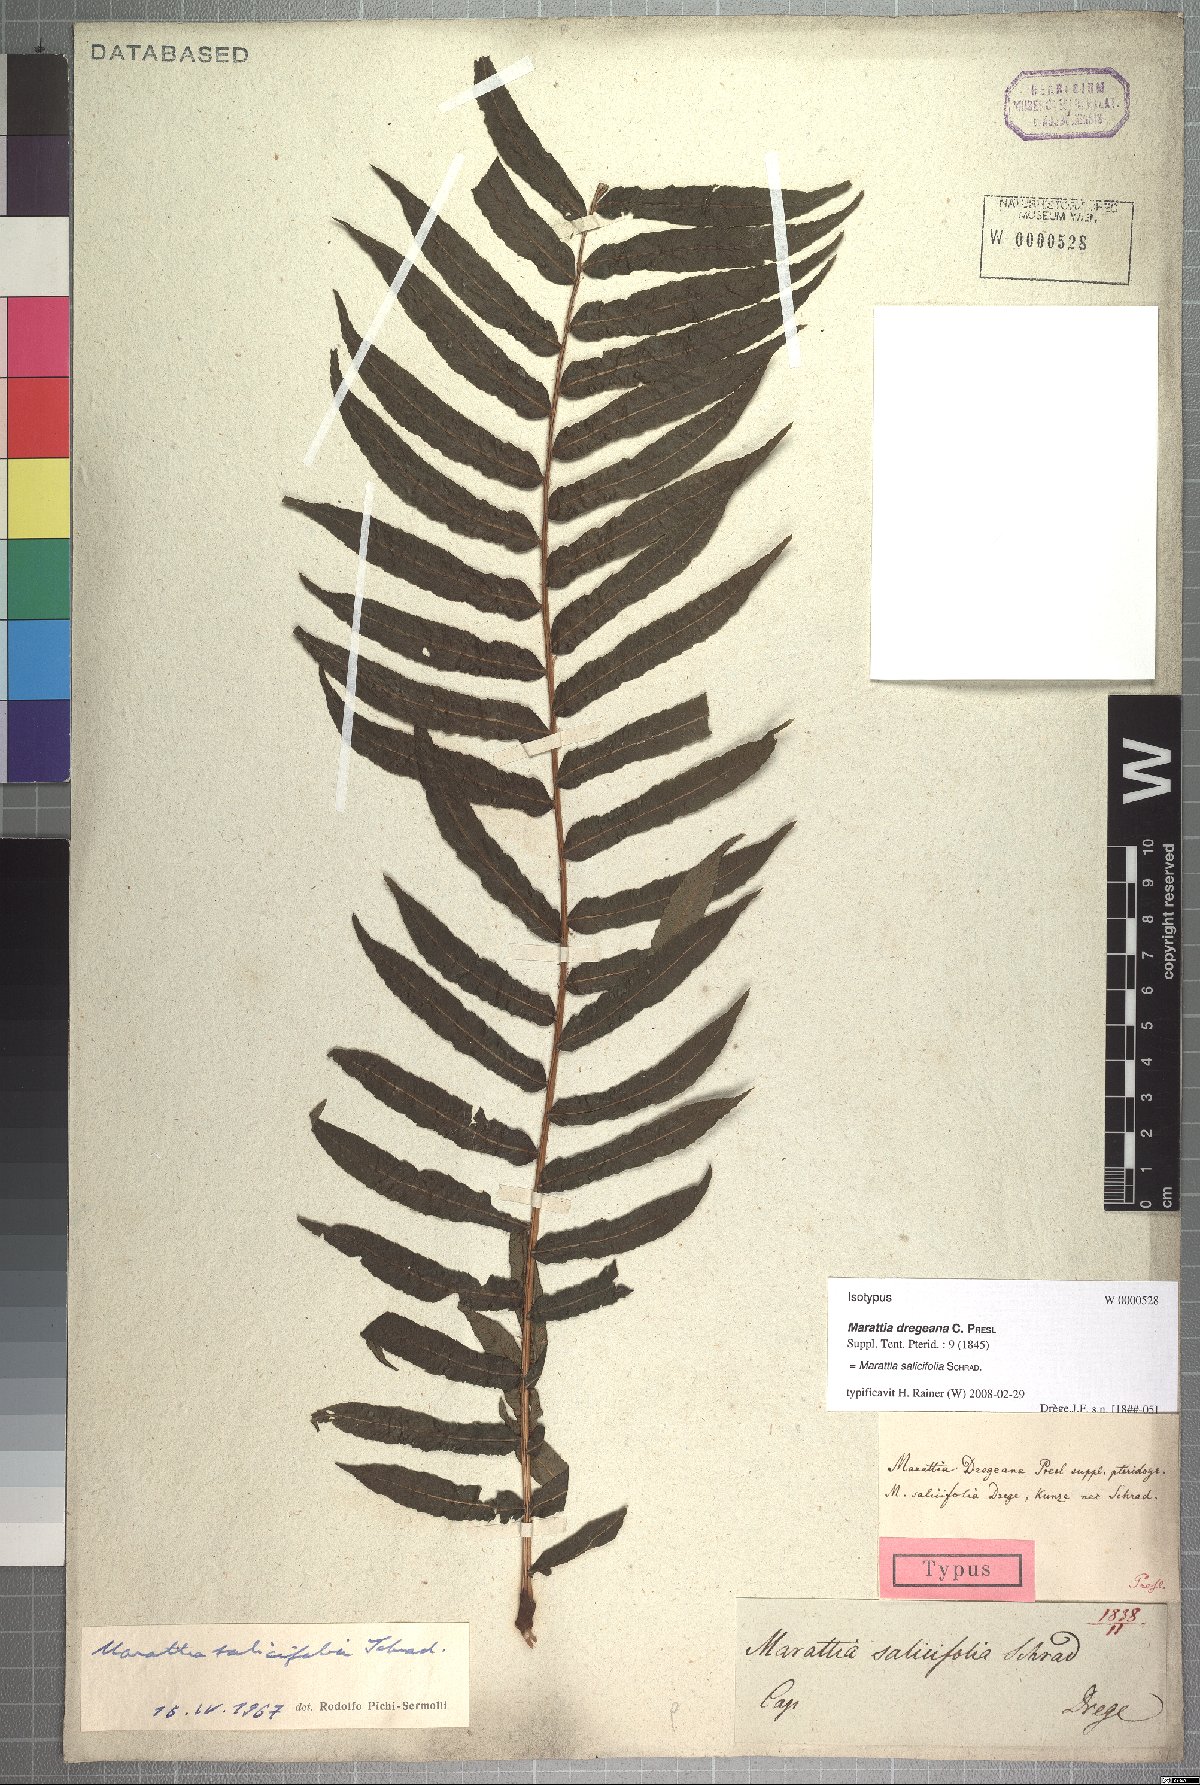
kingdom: Plantae
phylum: Tracheophyta
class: Polypodiopsida
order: Marattiales
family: Marattiaceae
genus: Ptisana
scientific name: Ptisana salicifolia
